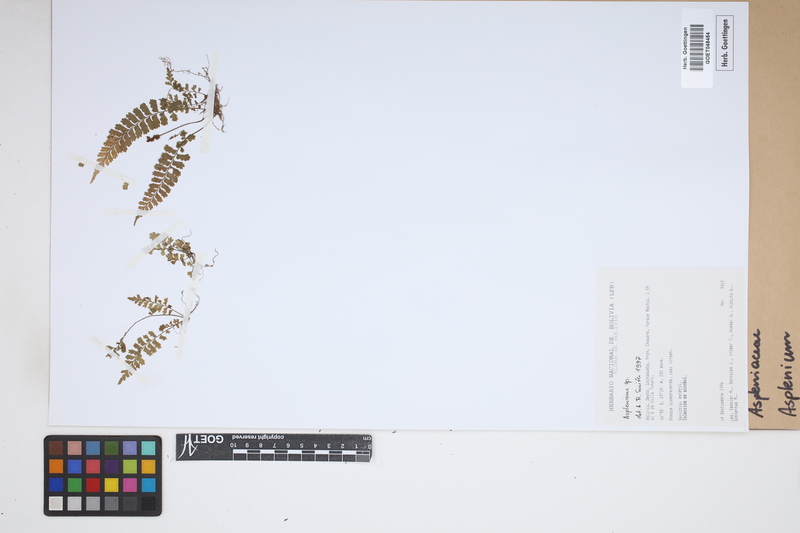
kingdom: Plantae
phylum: Tracheophyta
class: Polypodiopsida
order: Polypodiales
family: Aspleniaceae
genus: Asplenium
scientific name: Asplenium
